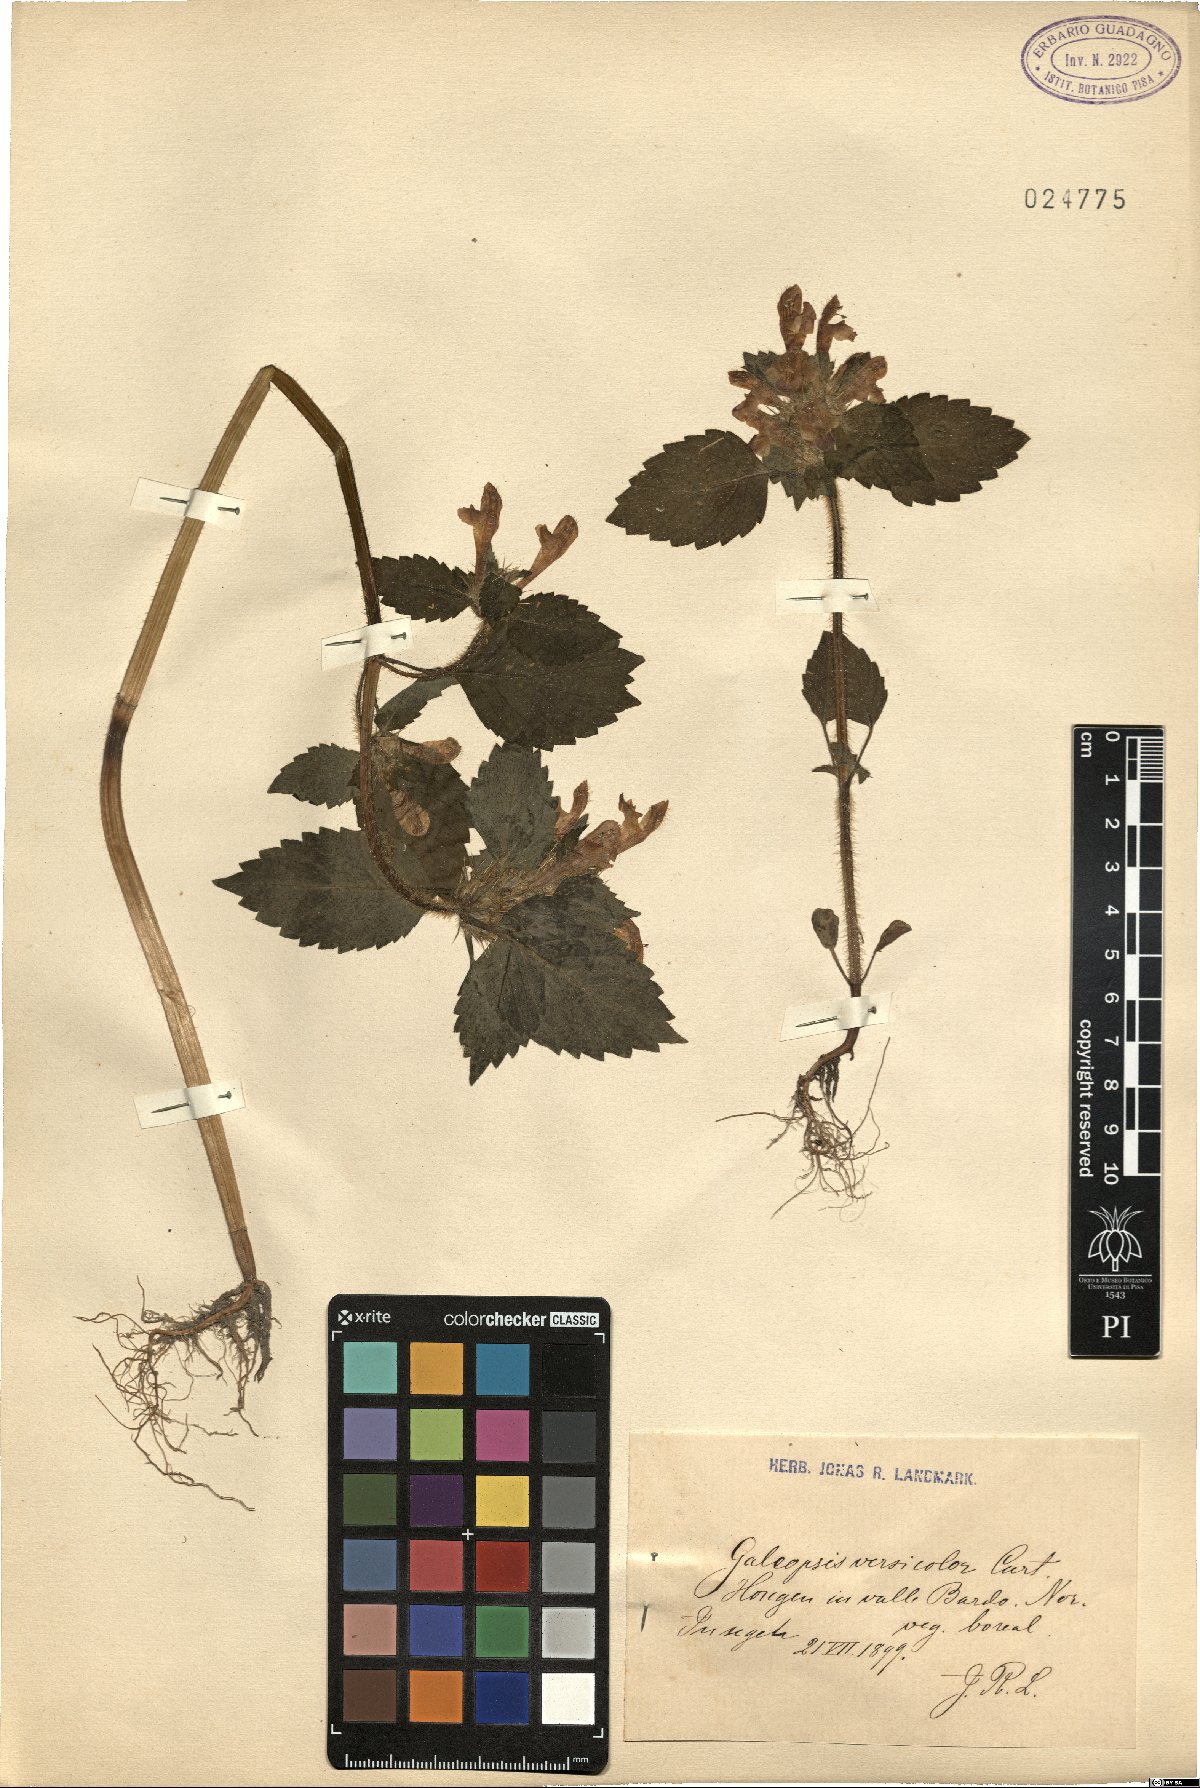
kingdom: Plantae
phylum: Tracheophyta
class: Magnoliopsida
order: Lamiales
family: Lamiaceae
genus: Galeopsis
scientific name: Galeopsis speciosa
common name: Large-flowered hemp-nettle
